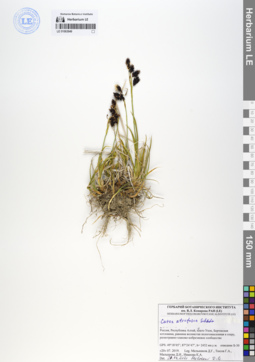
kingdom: Plantae
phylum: Tracheophyta
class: Liliopsida
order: Poales
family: Cyperaceae
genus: Carex
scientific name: Carex atrofusca
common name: Scorched alpine-sedge
